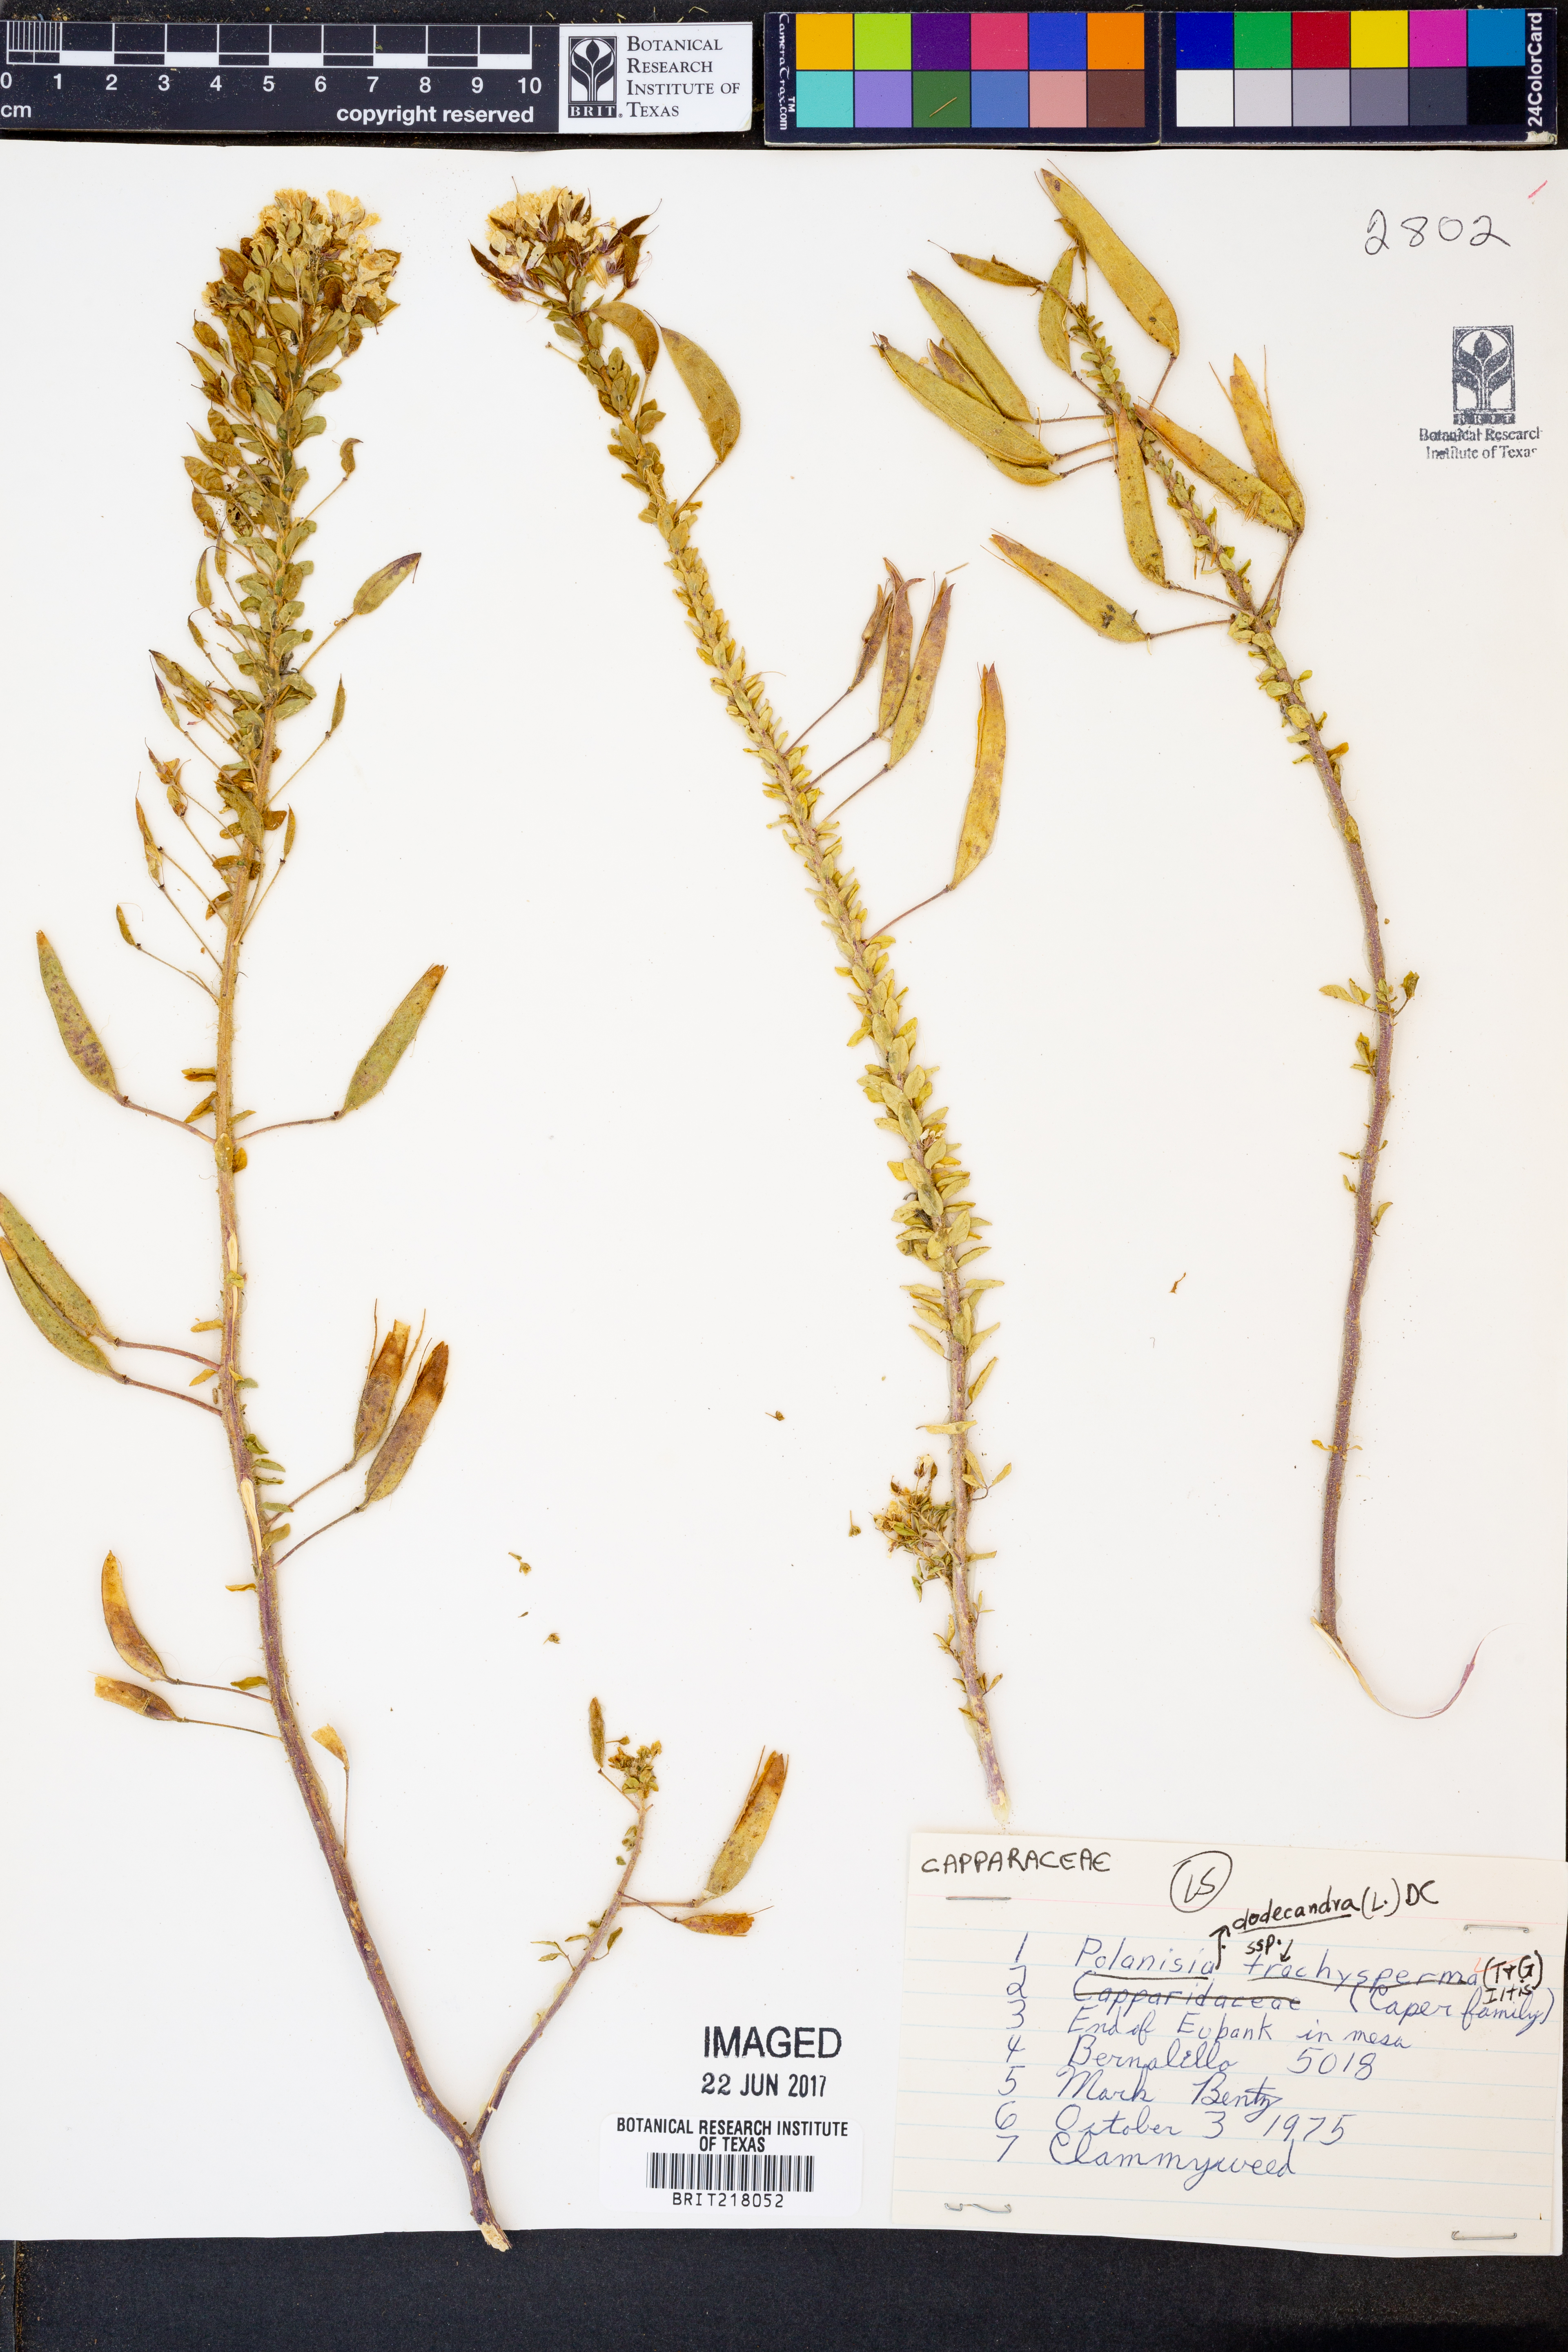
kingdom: Plantae
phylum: Tracheophyta
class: Magnoliopsida
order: Brassicales
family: Cleomaceae
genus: Polanisia
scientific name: Polanisia dodecandra
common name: Clammyweed
